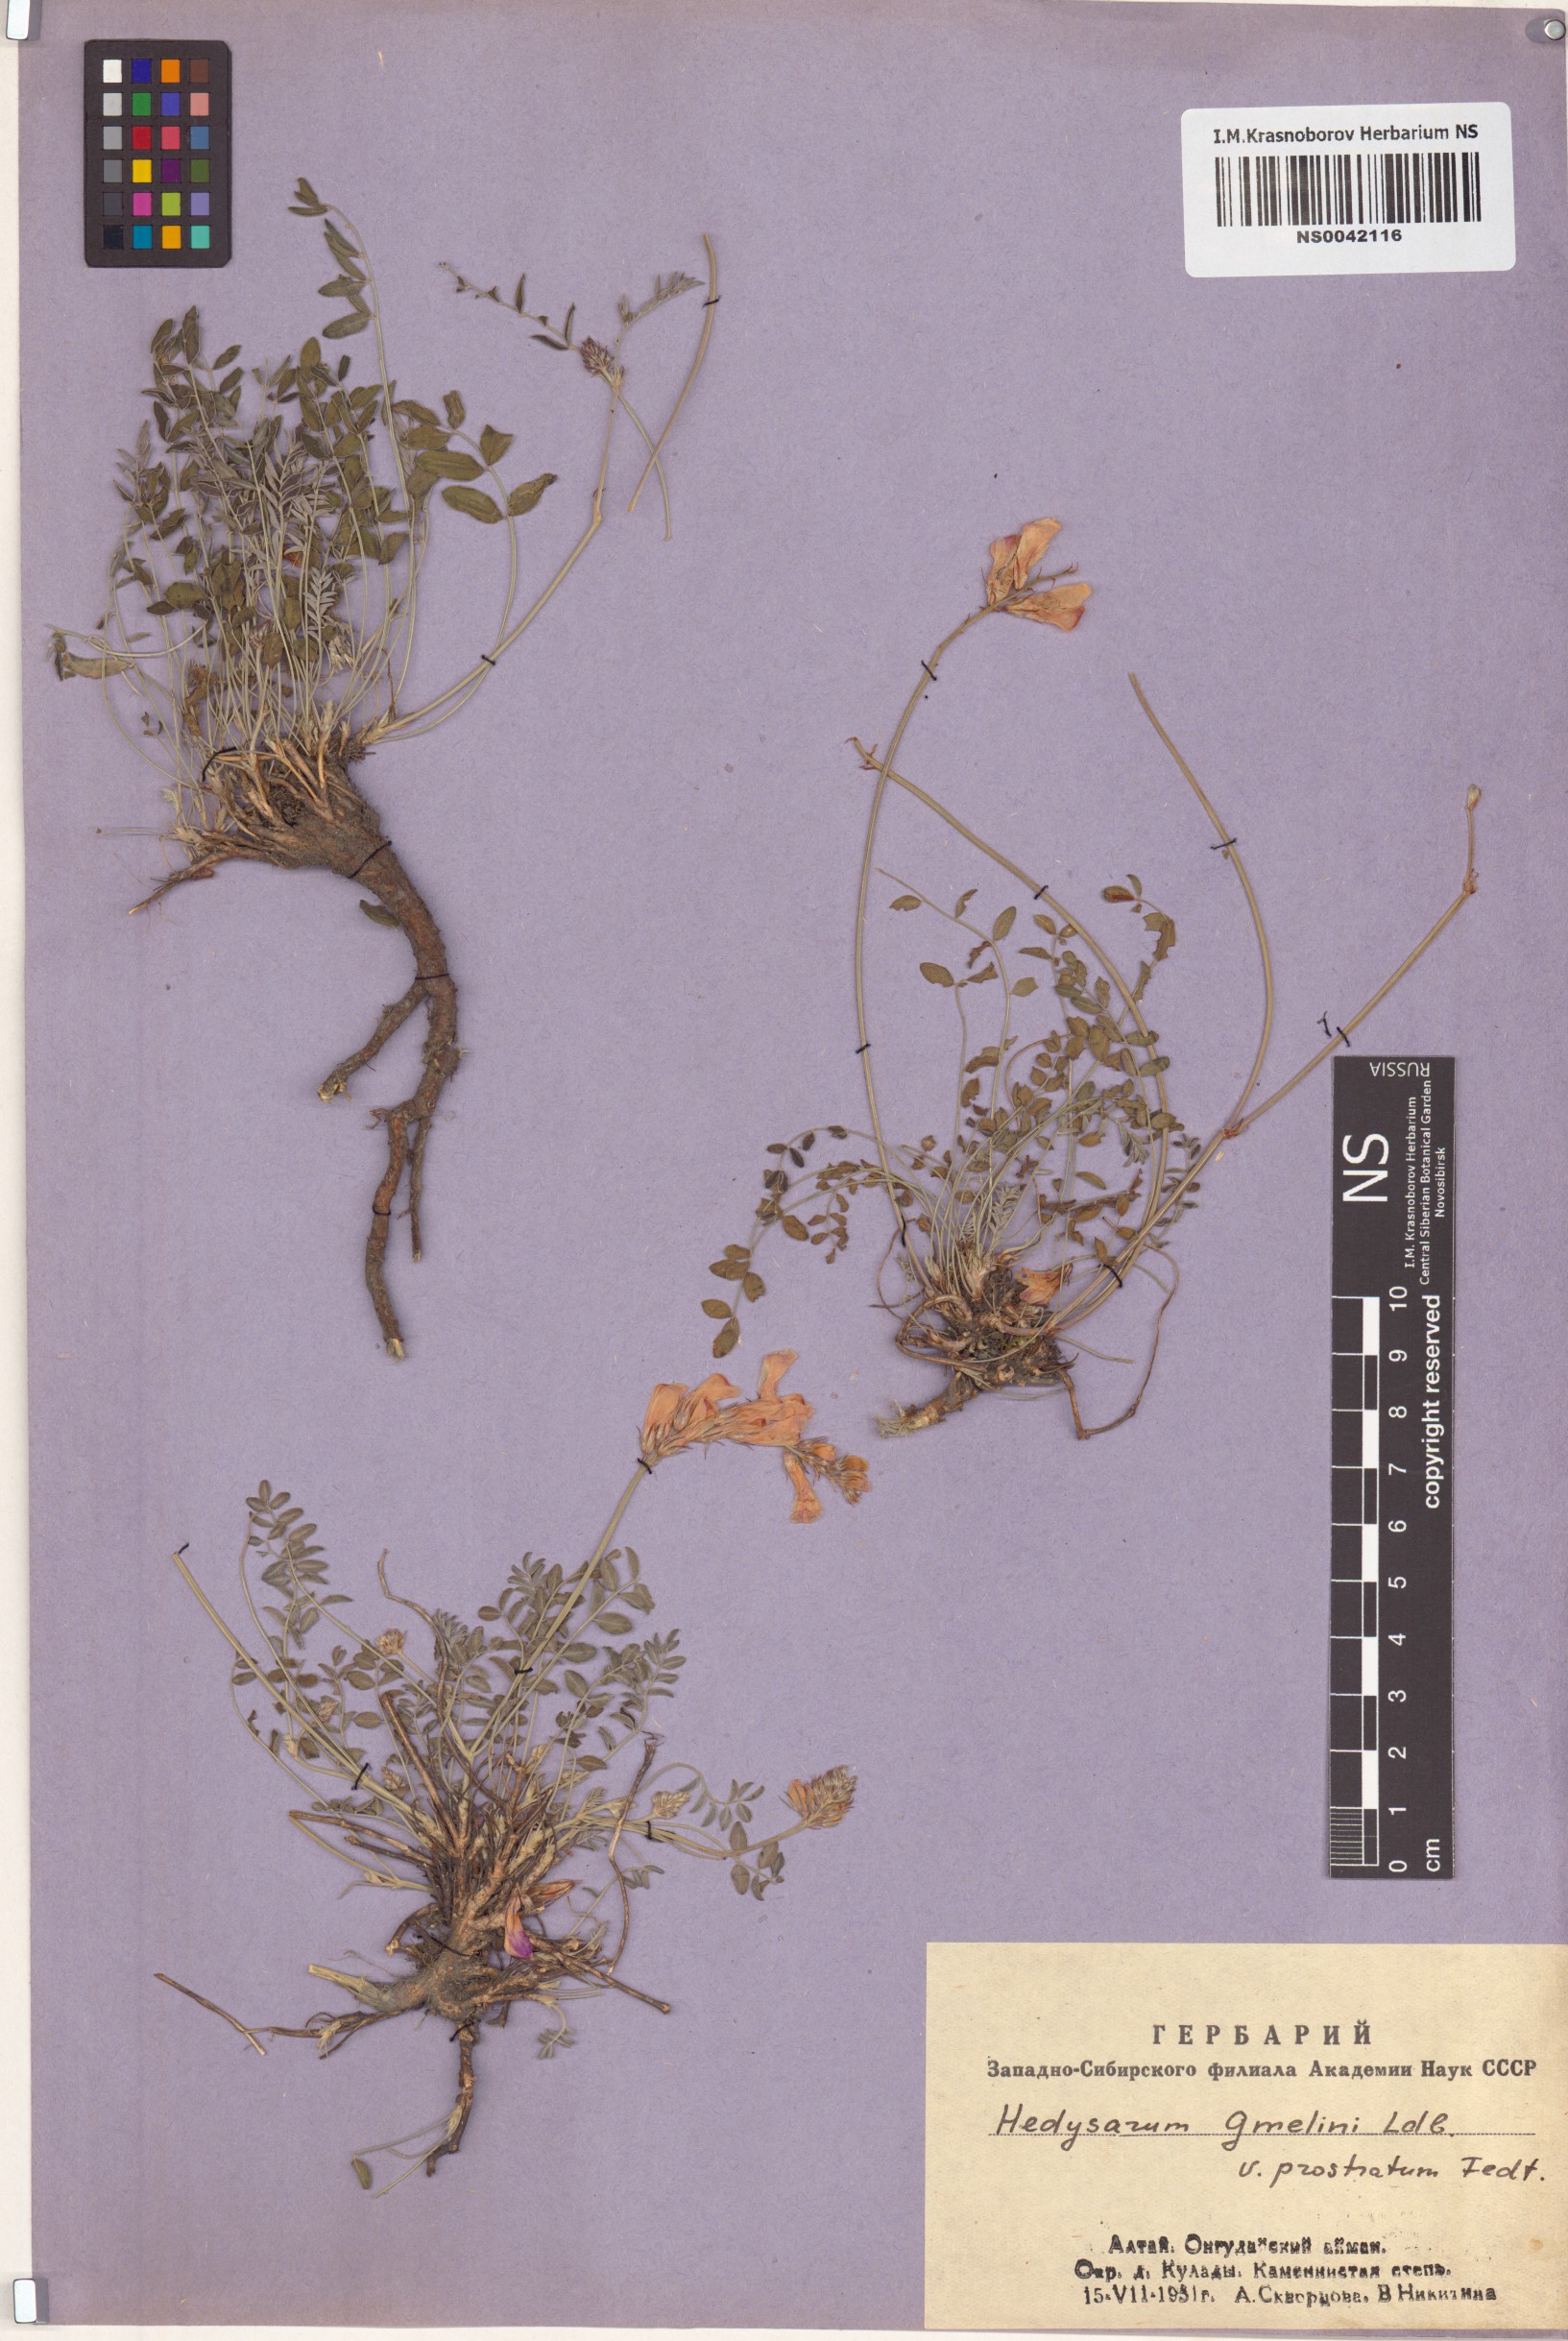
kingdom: Plantae
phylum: Tracheophyta
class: Magnoliopsida
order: Fabales
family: Fabaceae
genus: Hedysarum
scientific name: Hedysarum gmelinii
